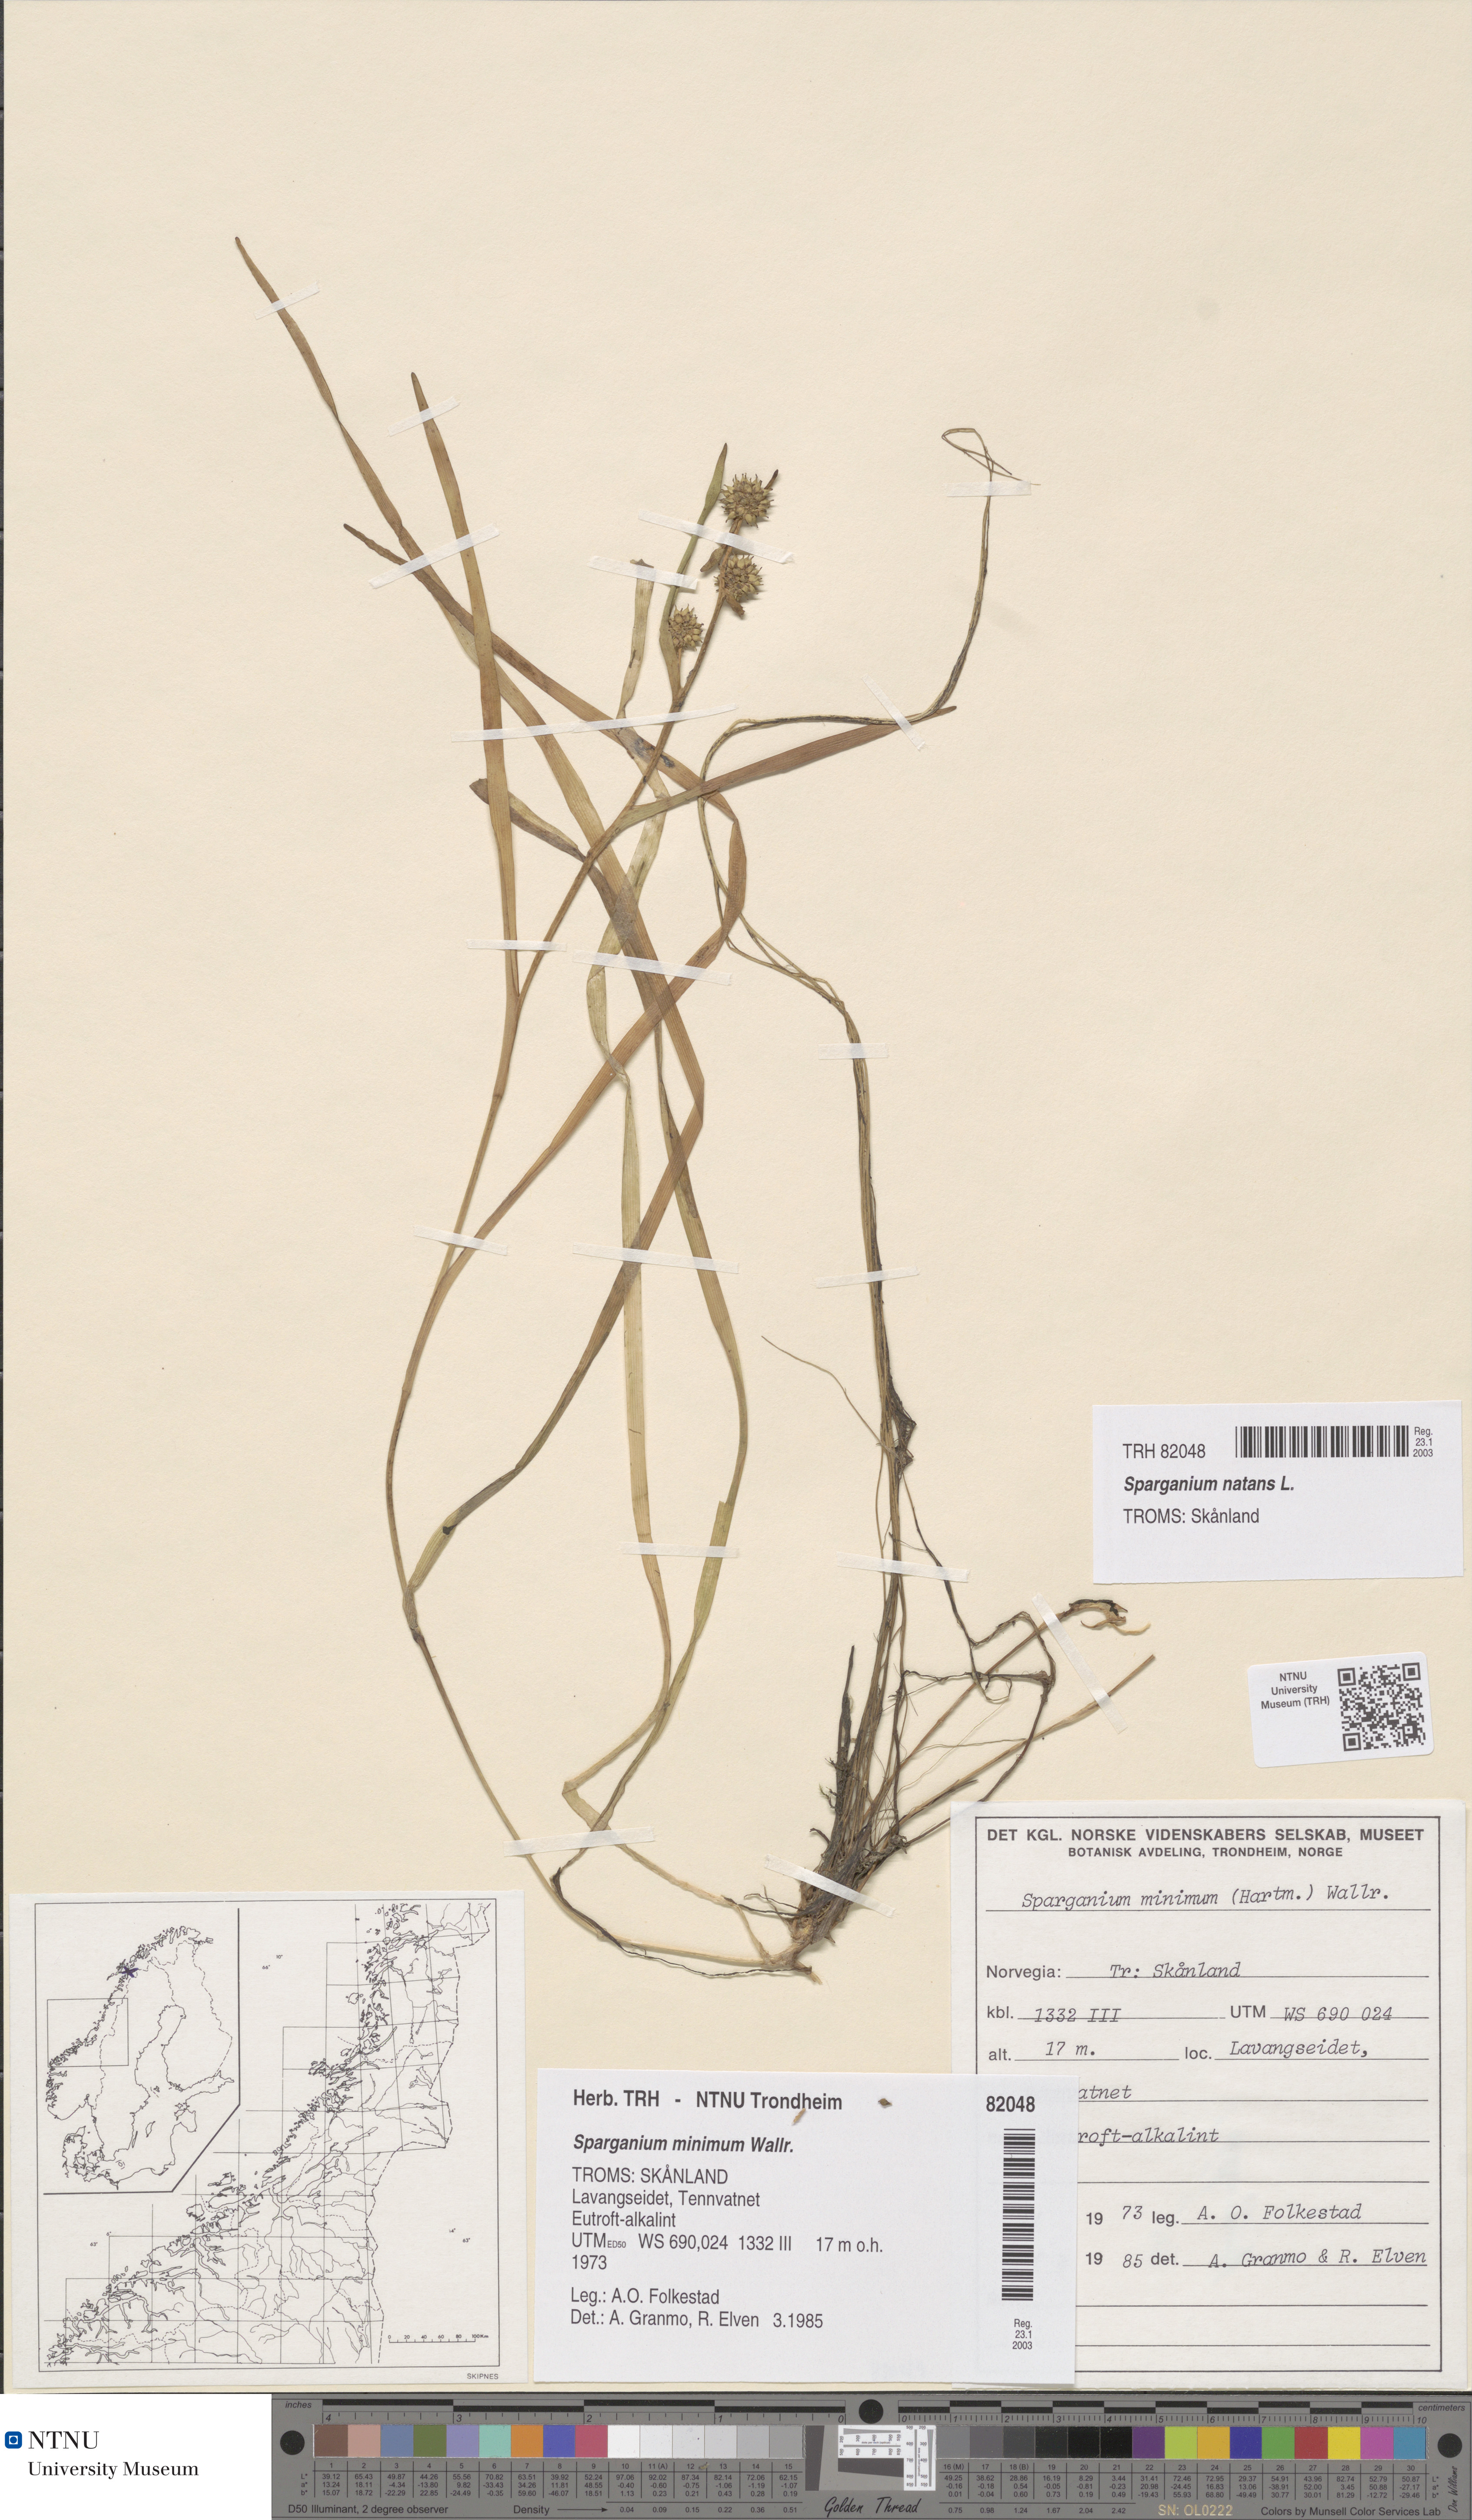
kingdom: Plantae
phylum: Tracheophyta
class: Liliopsida
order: Poales
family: Typhaceae
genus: Sparganium
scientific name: Sparganium natans
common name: Least bur-reed
